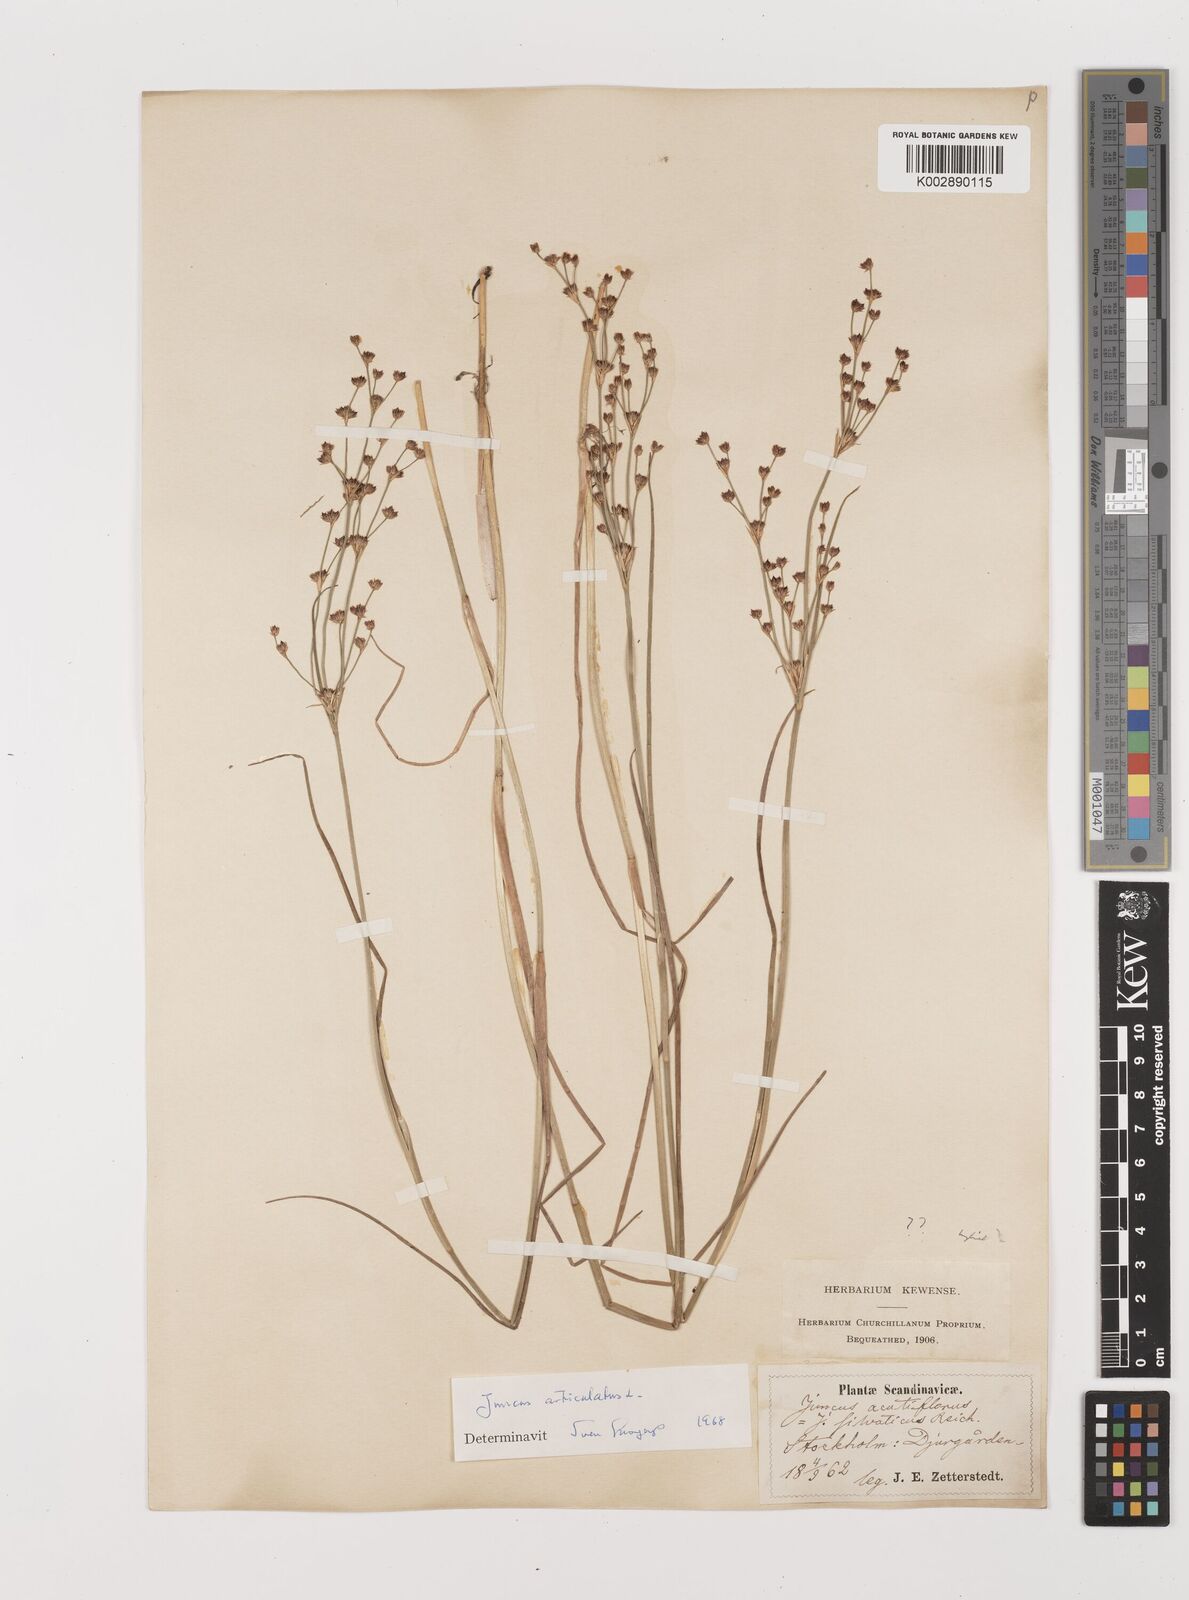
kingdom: Plantae
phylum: Tracheophyta
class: Liliopsida
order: Poales
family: Juncaceae
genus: Juncus
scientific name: Juncus articulatus
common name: Jointed rush
